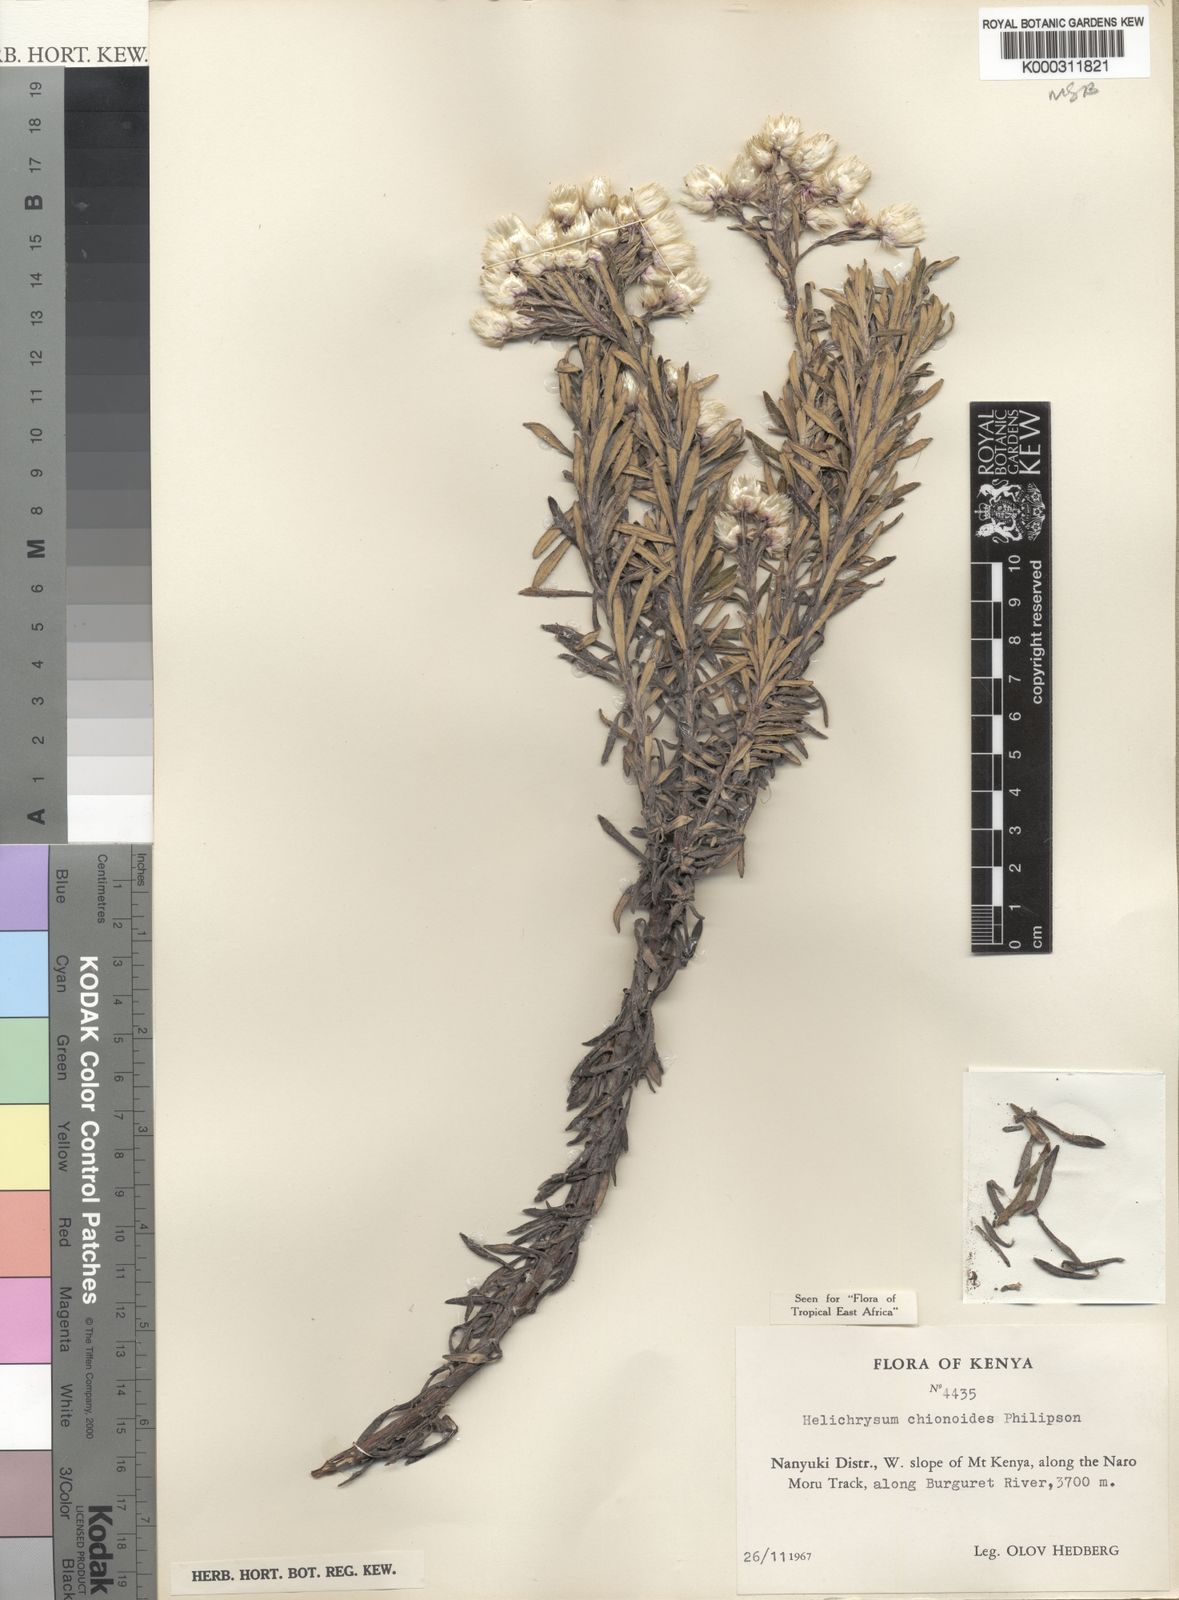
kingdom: Plantae
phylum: Tracheophyta
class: Magnoliopsida
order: Asterales
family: Asteraceae
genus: Helichrysum
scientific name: Helichrysum chionoides
